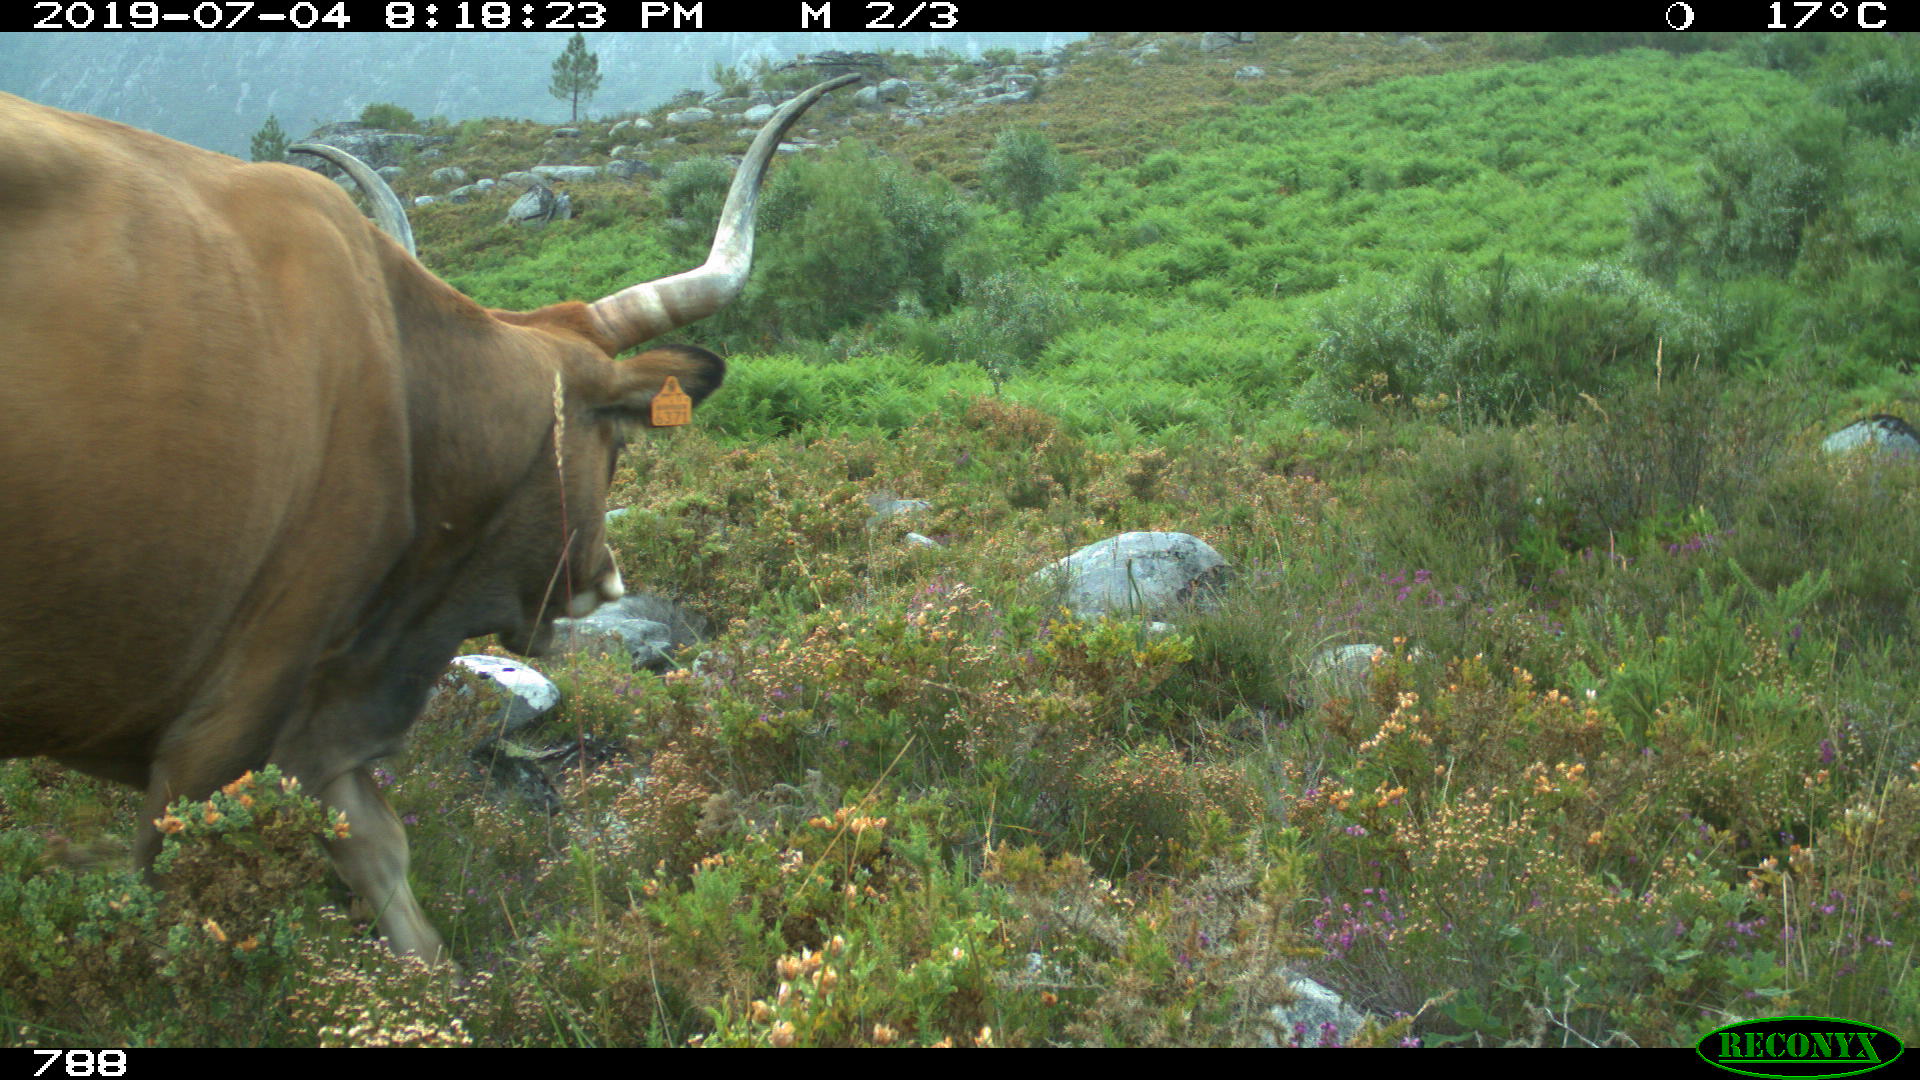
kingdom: Animalia
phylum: Chordata
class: Mammalia
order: Artiodactyla
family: Bovidae
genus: Bos
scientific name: Bos taurus
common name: Domesticated cattle
